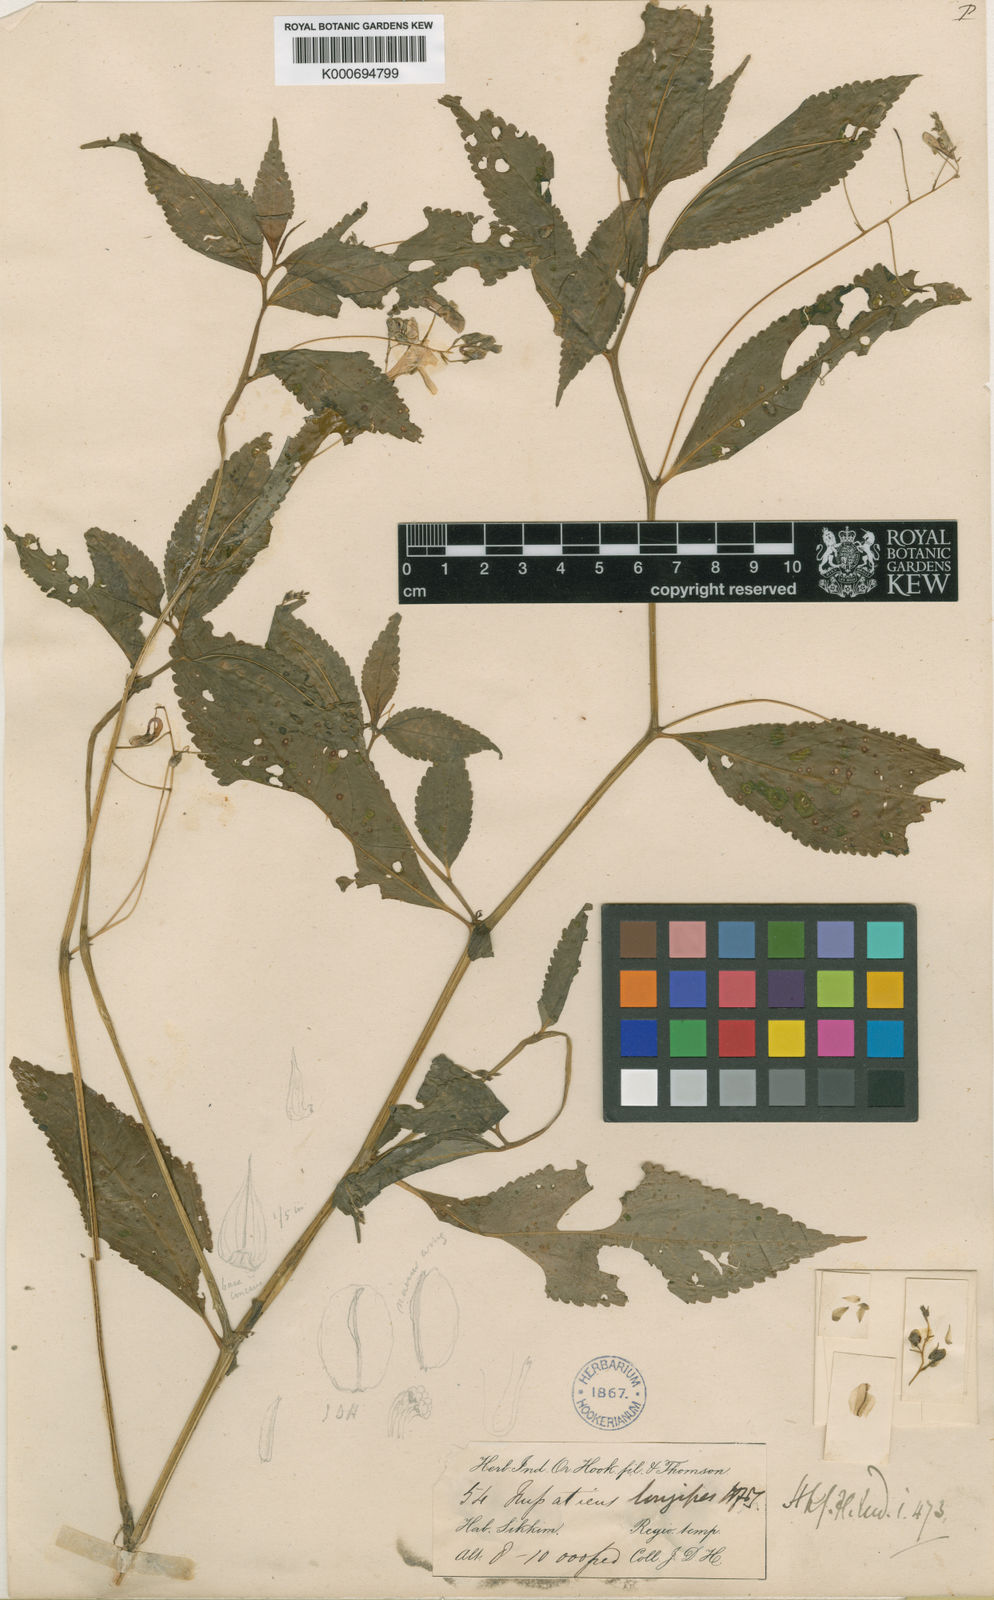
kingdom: Plantae
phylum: Tracheophyta
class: Magnoliopsida
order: Ericales
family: Balsaminaceae
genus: Impatiens
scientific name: Impatiens longipes
